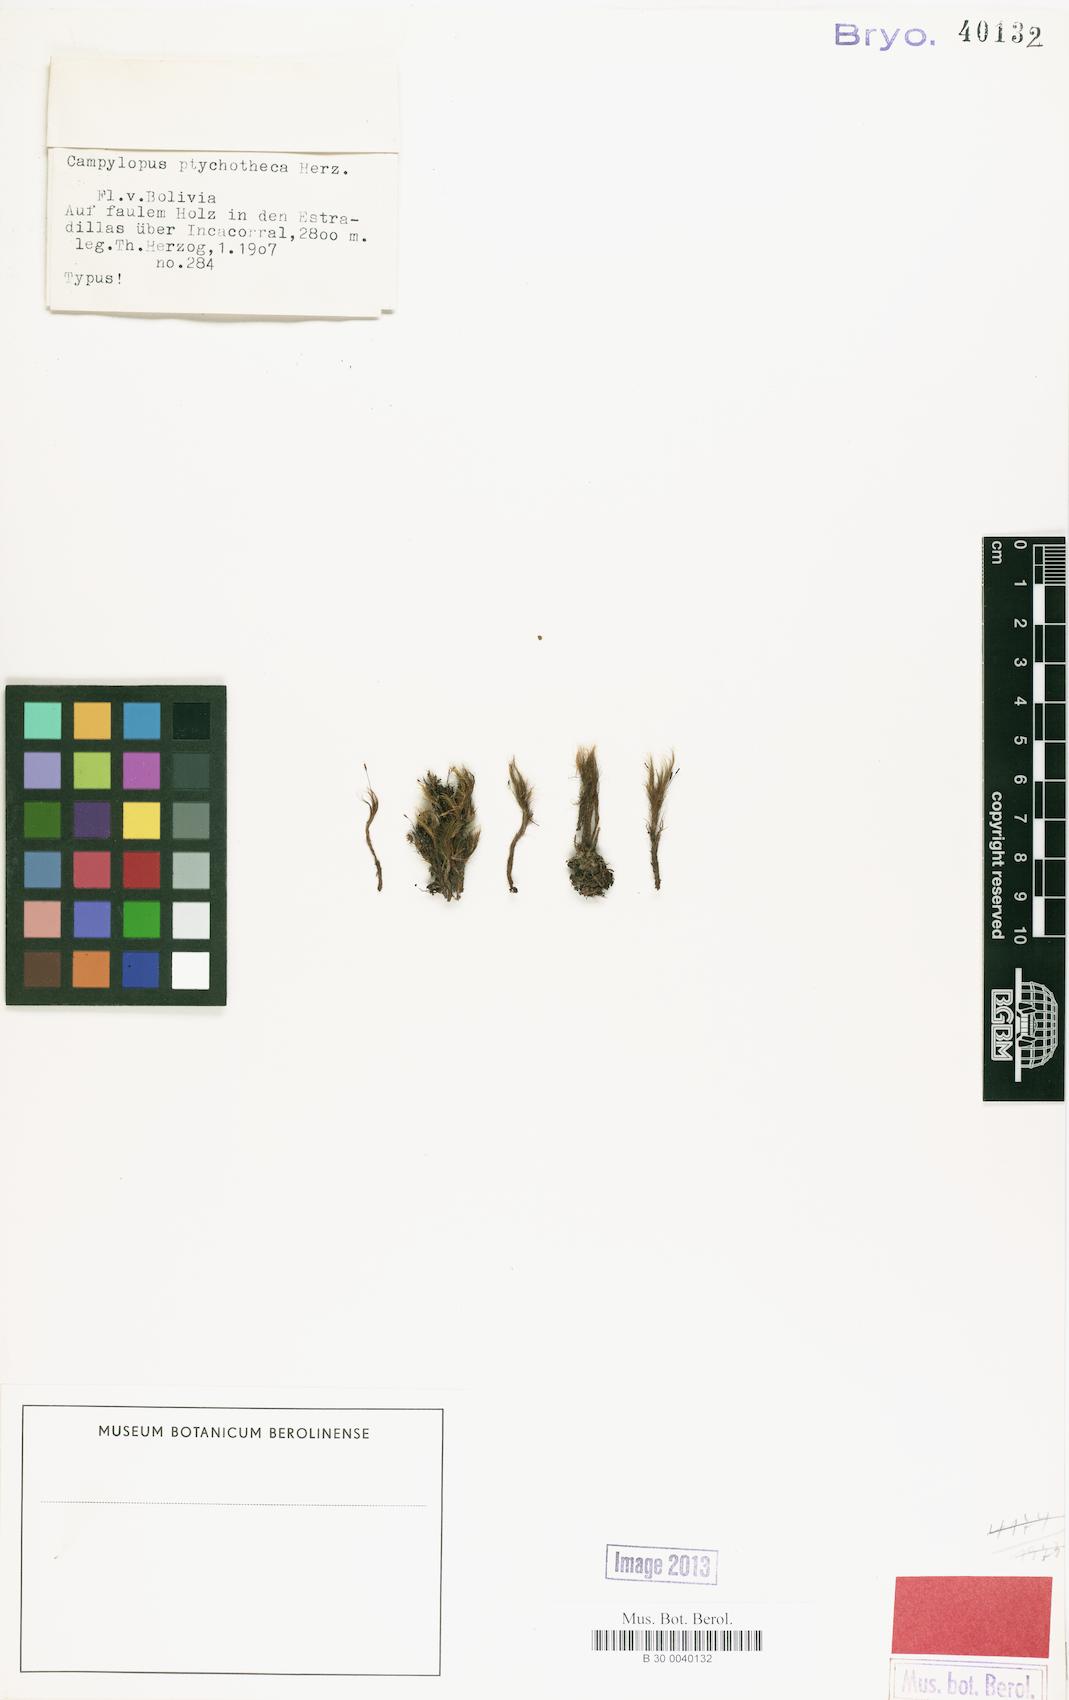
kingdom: Plantae
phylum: Bryophyta
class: Bryopsida
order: Dicranales
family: Leucobryaceae
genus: Campylopus
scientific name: Campylopus reflexisetus
